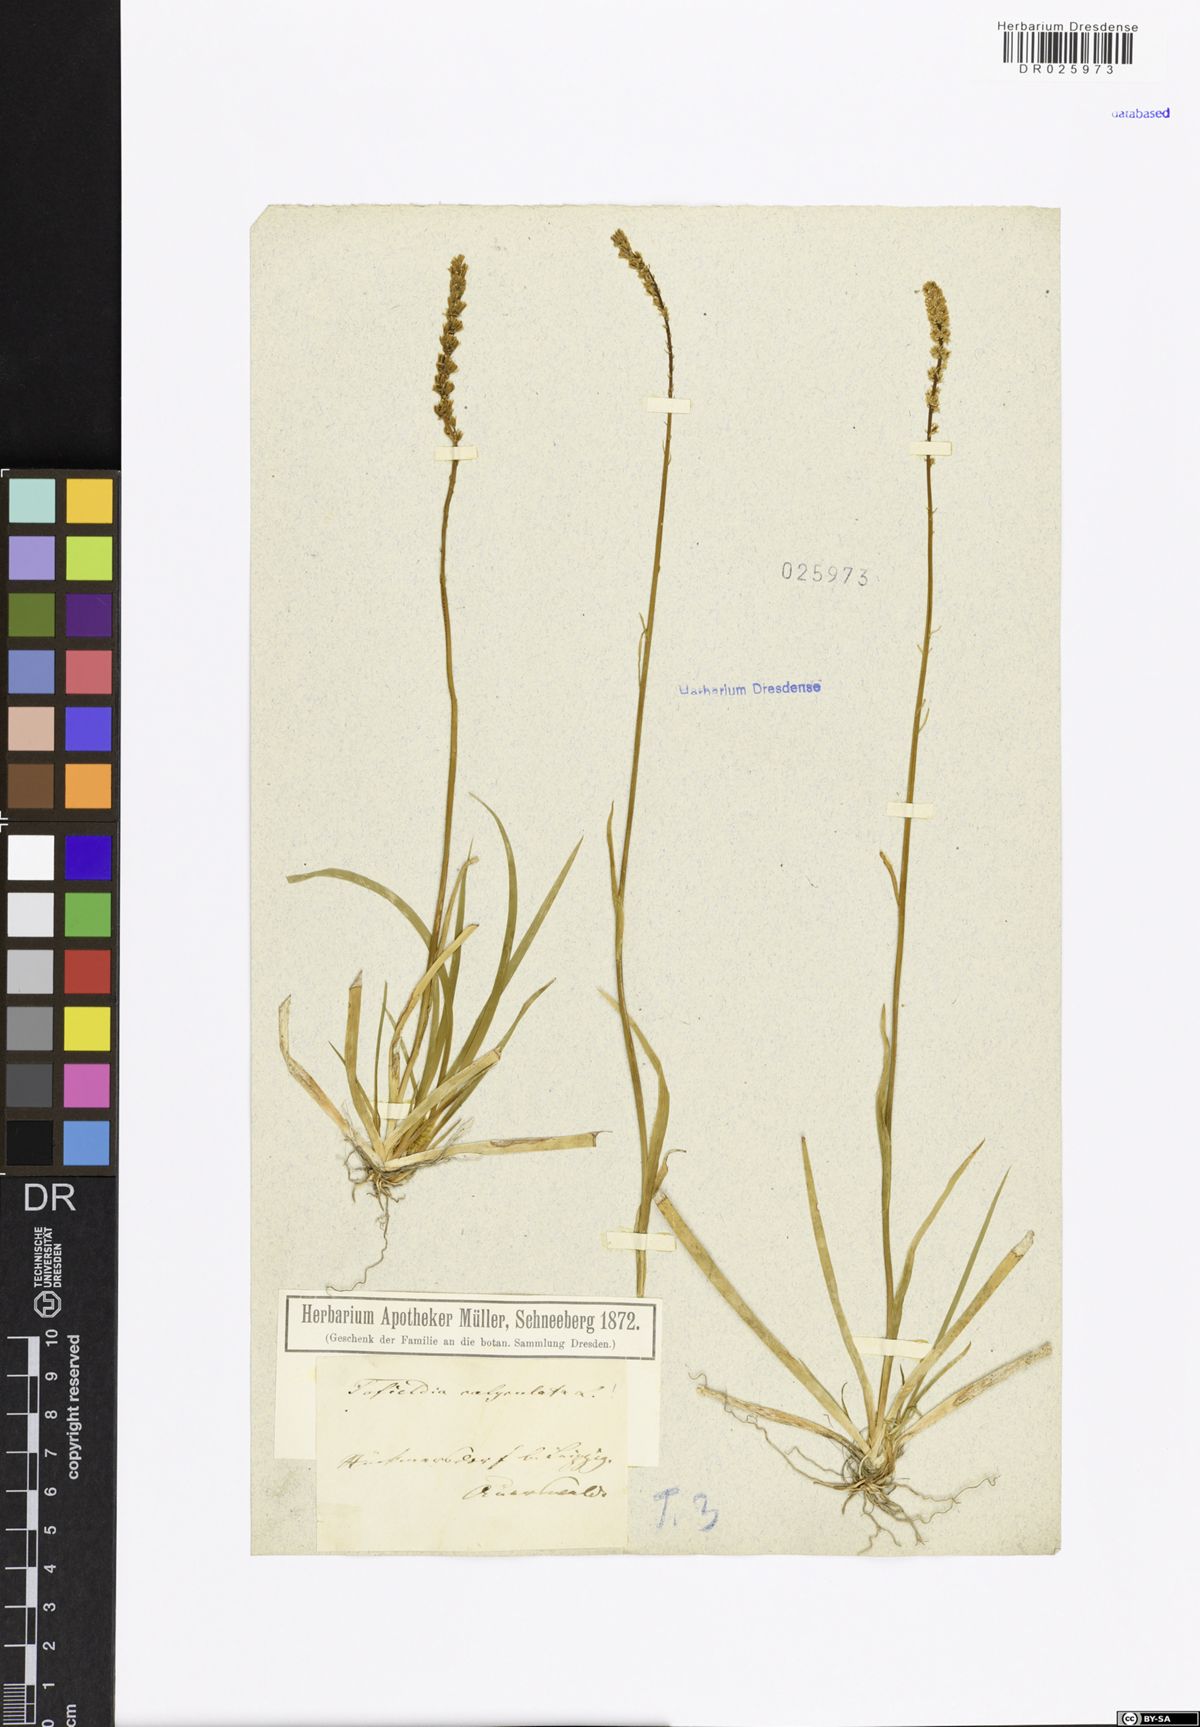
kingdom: Plantae
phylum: Tracheophyta
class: Liliopsida
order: Alismatales
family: Tofieldiaceae
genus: Tofieldia
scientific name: Tofieldia calyculata
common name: German-asphodel
